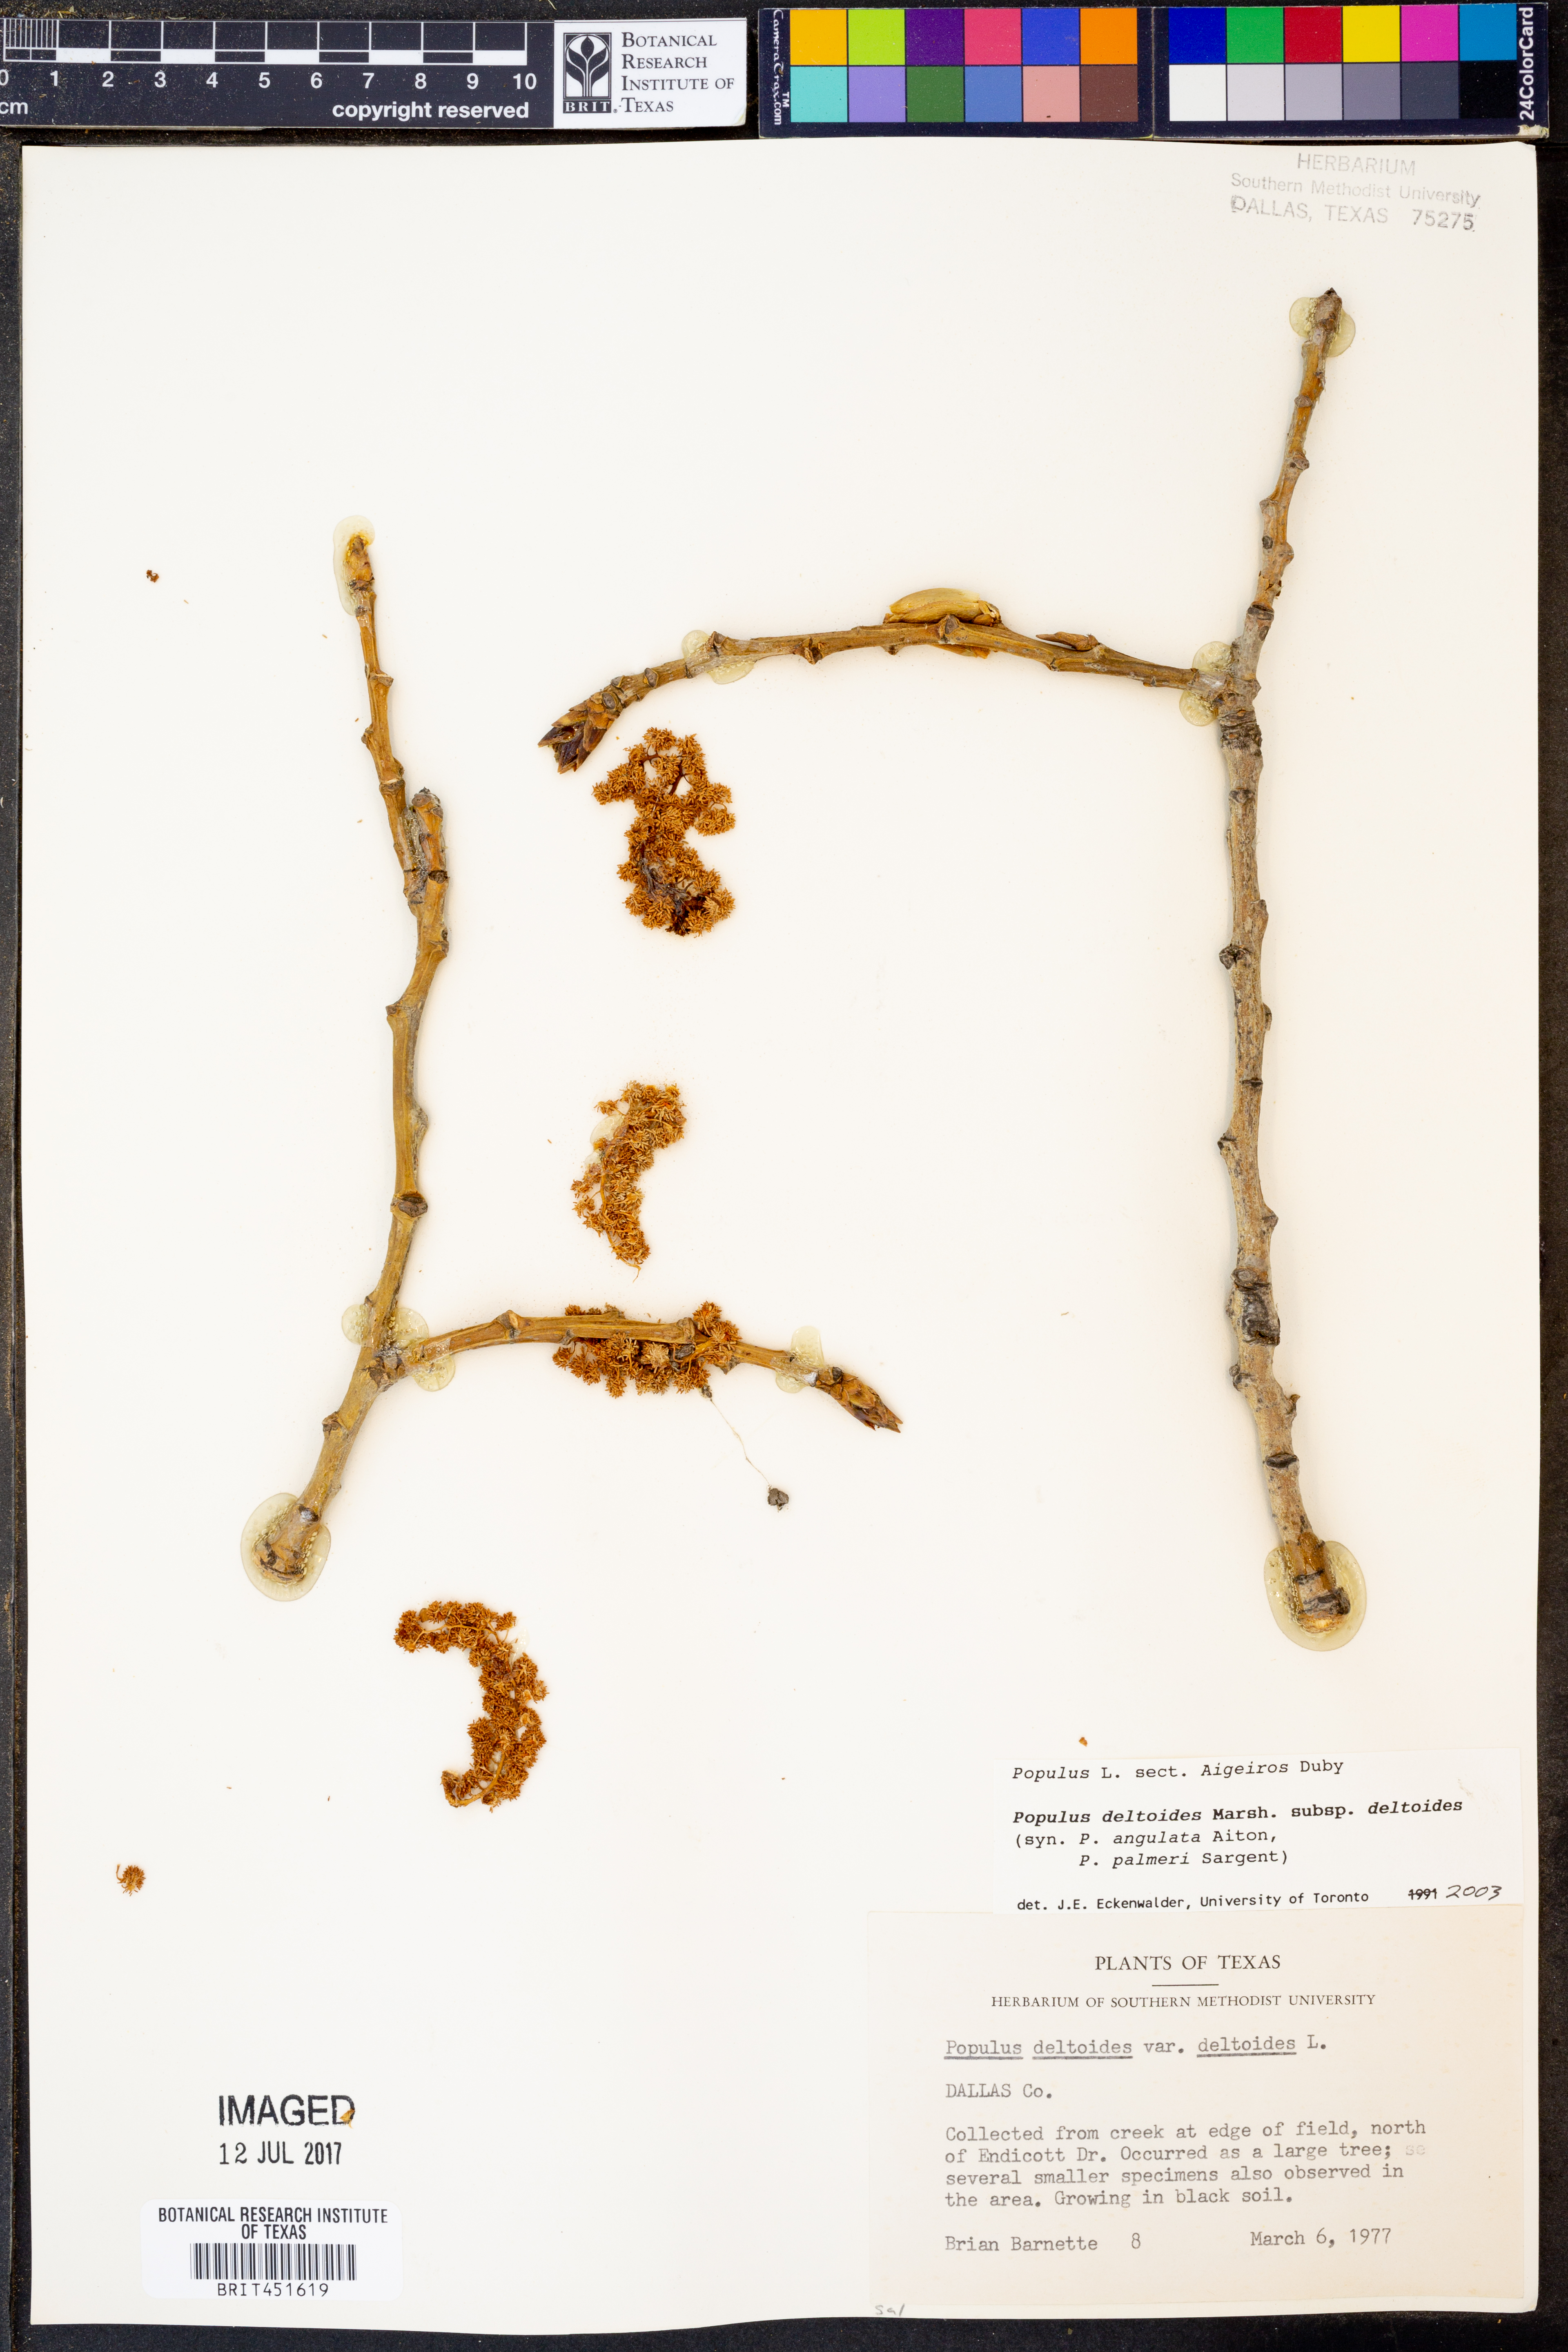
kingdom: Plantae
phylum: Tracheophyta
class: Magnoliopsida
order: Malpighiales
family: Salicaceae
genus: Populus
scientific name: Populus deltoides
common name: Eastern cottonwood
